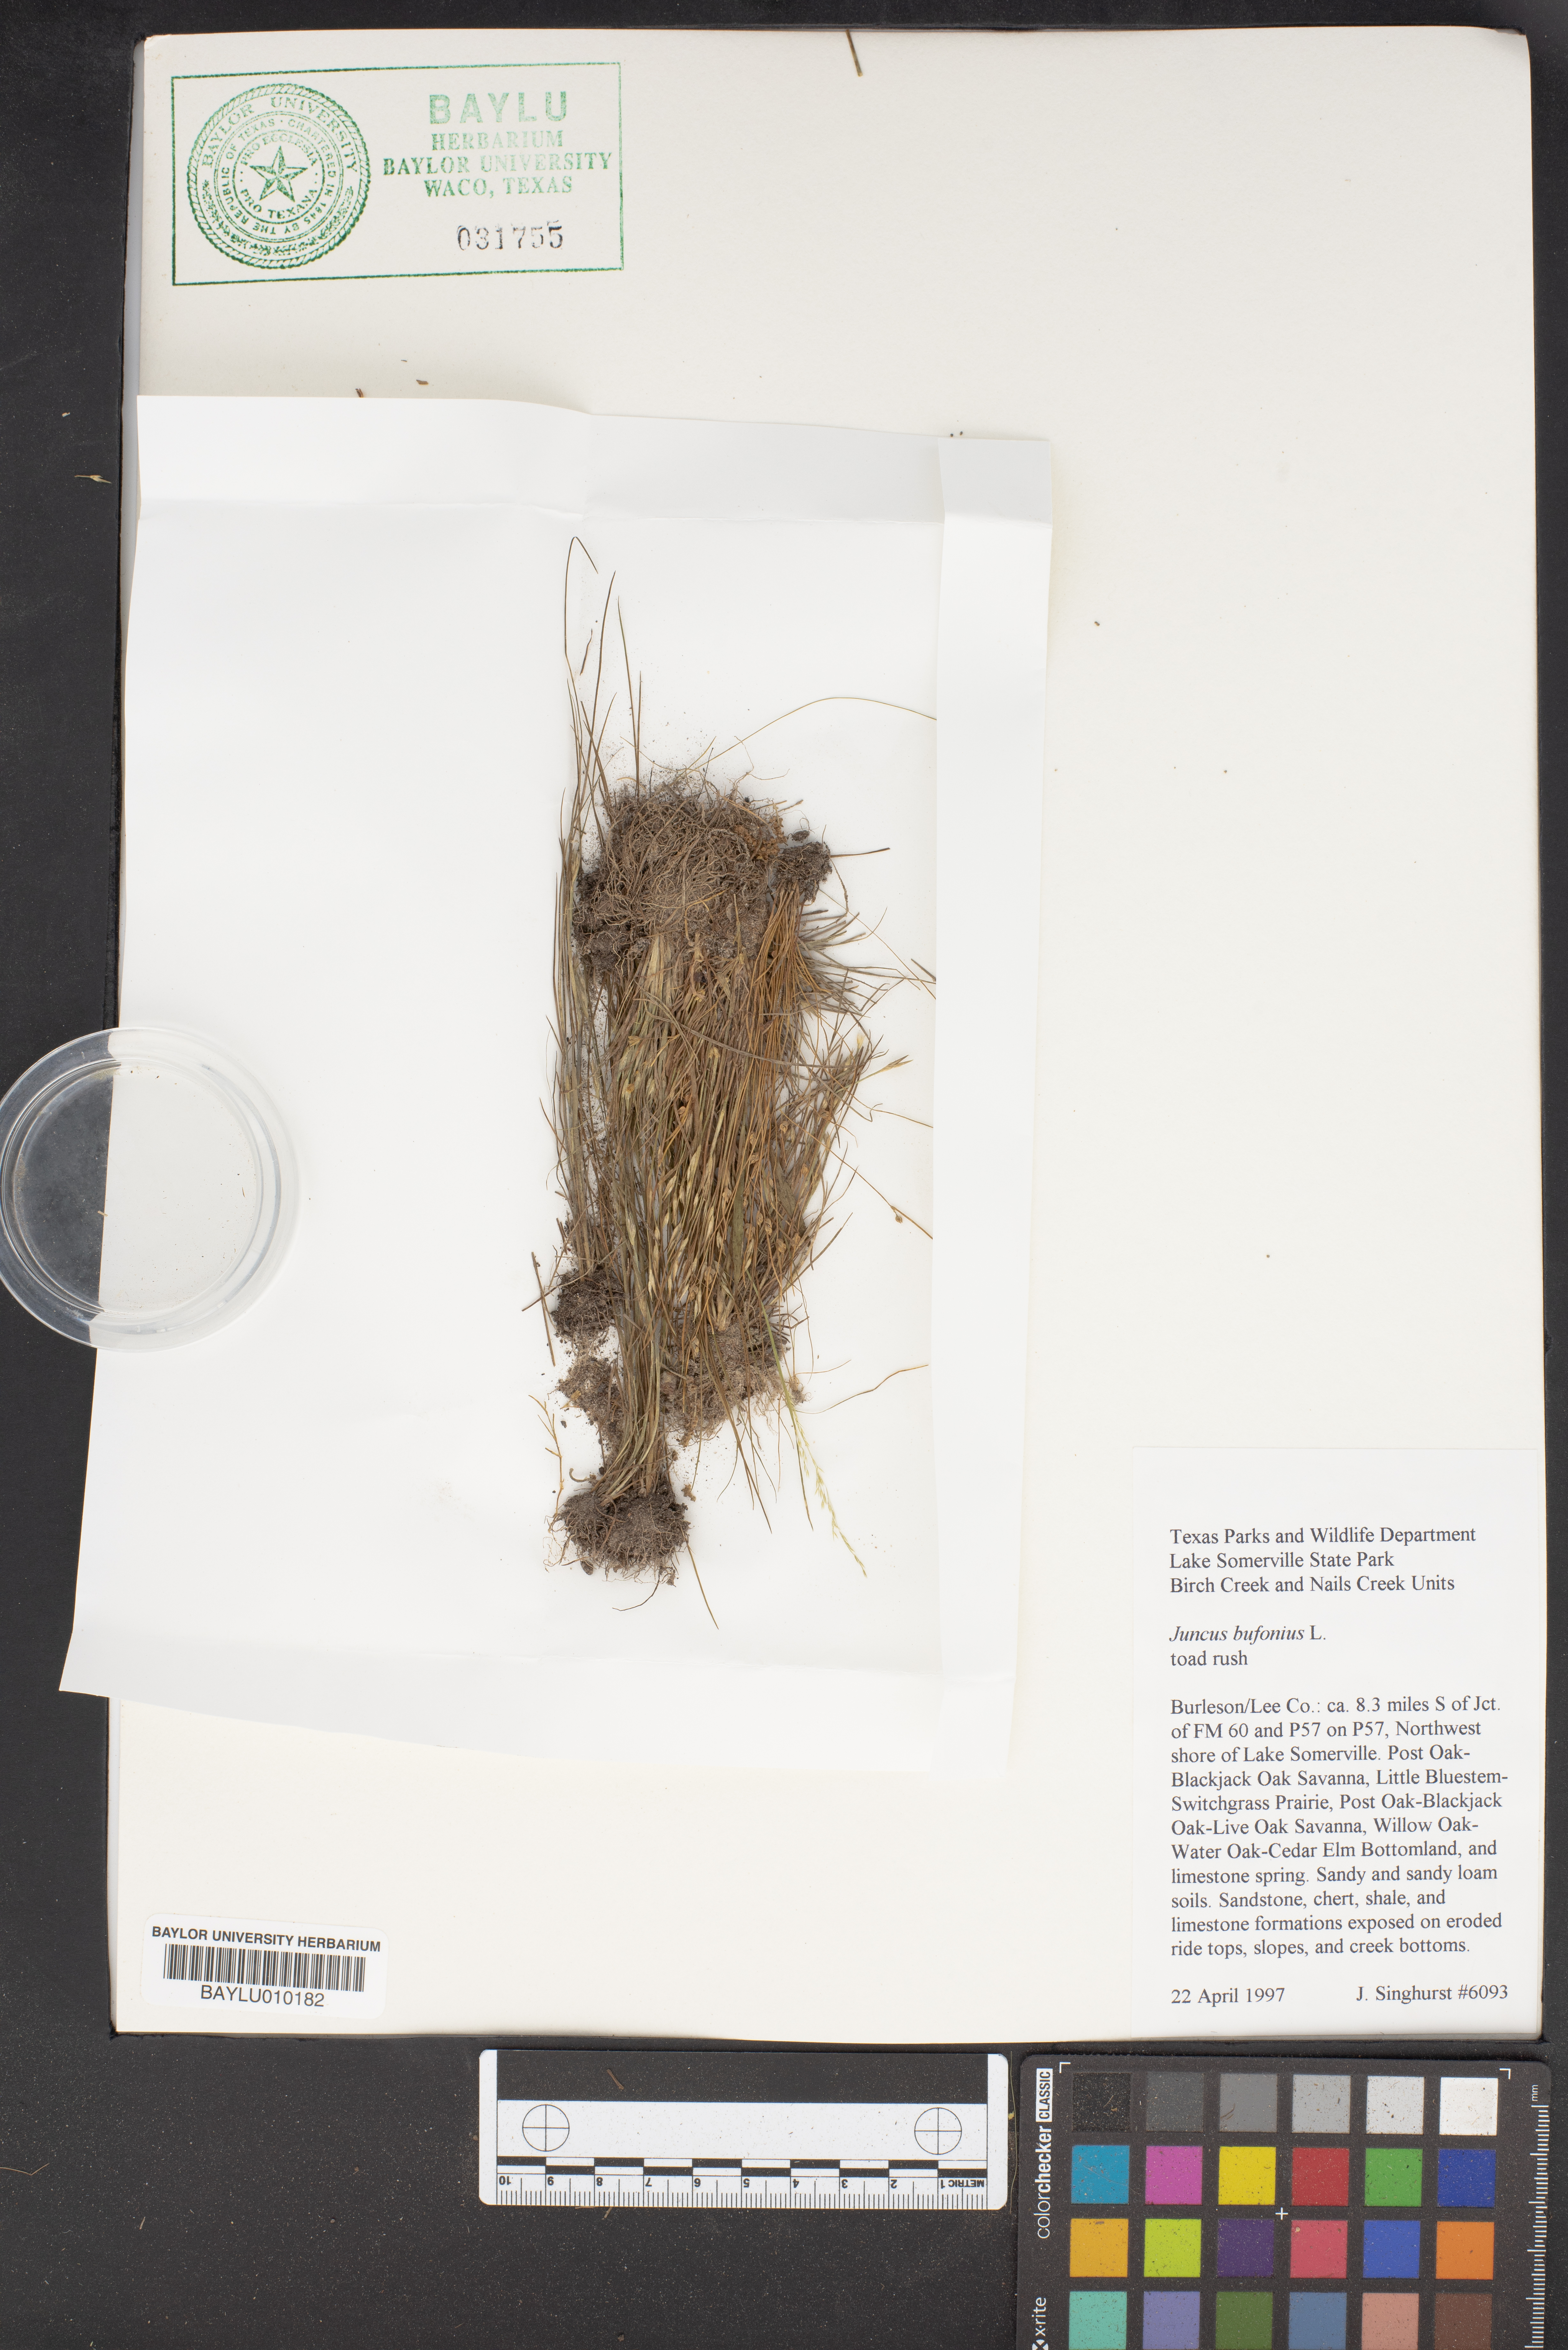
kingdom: Plantae
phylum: Tracheophyta
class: Liliopsida
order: Poales
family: Juncaceae
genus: Juncus
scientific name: Juncus bufonius
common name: Toad rush
